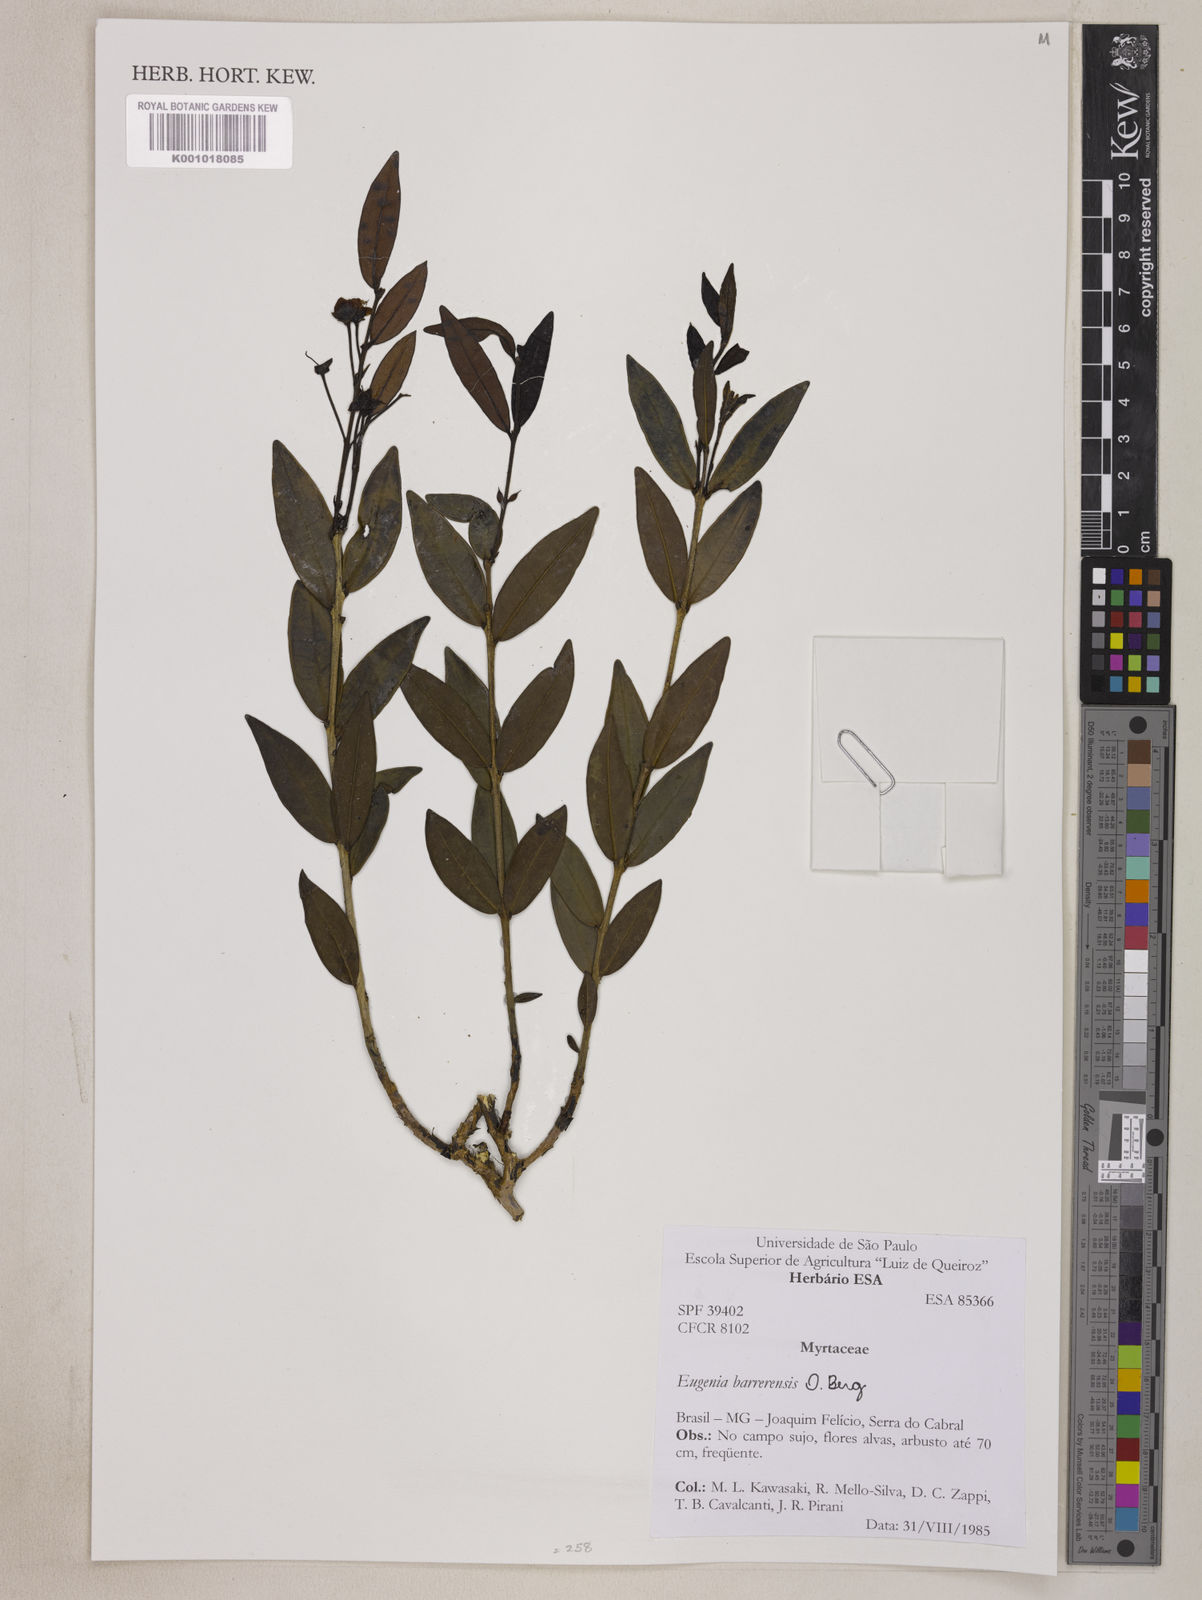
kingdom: Plantae
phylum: Tracheophyta
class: Magnoliopsida
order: Myrtales
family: Myrtaceae
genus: Eugenia
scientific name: Eugenia complicata
